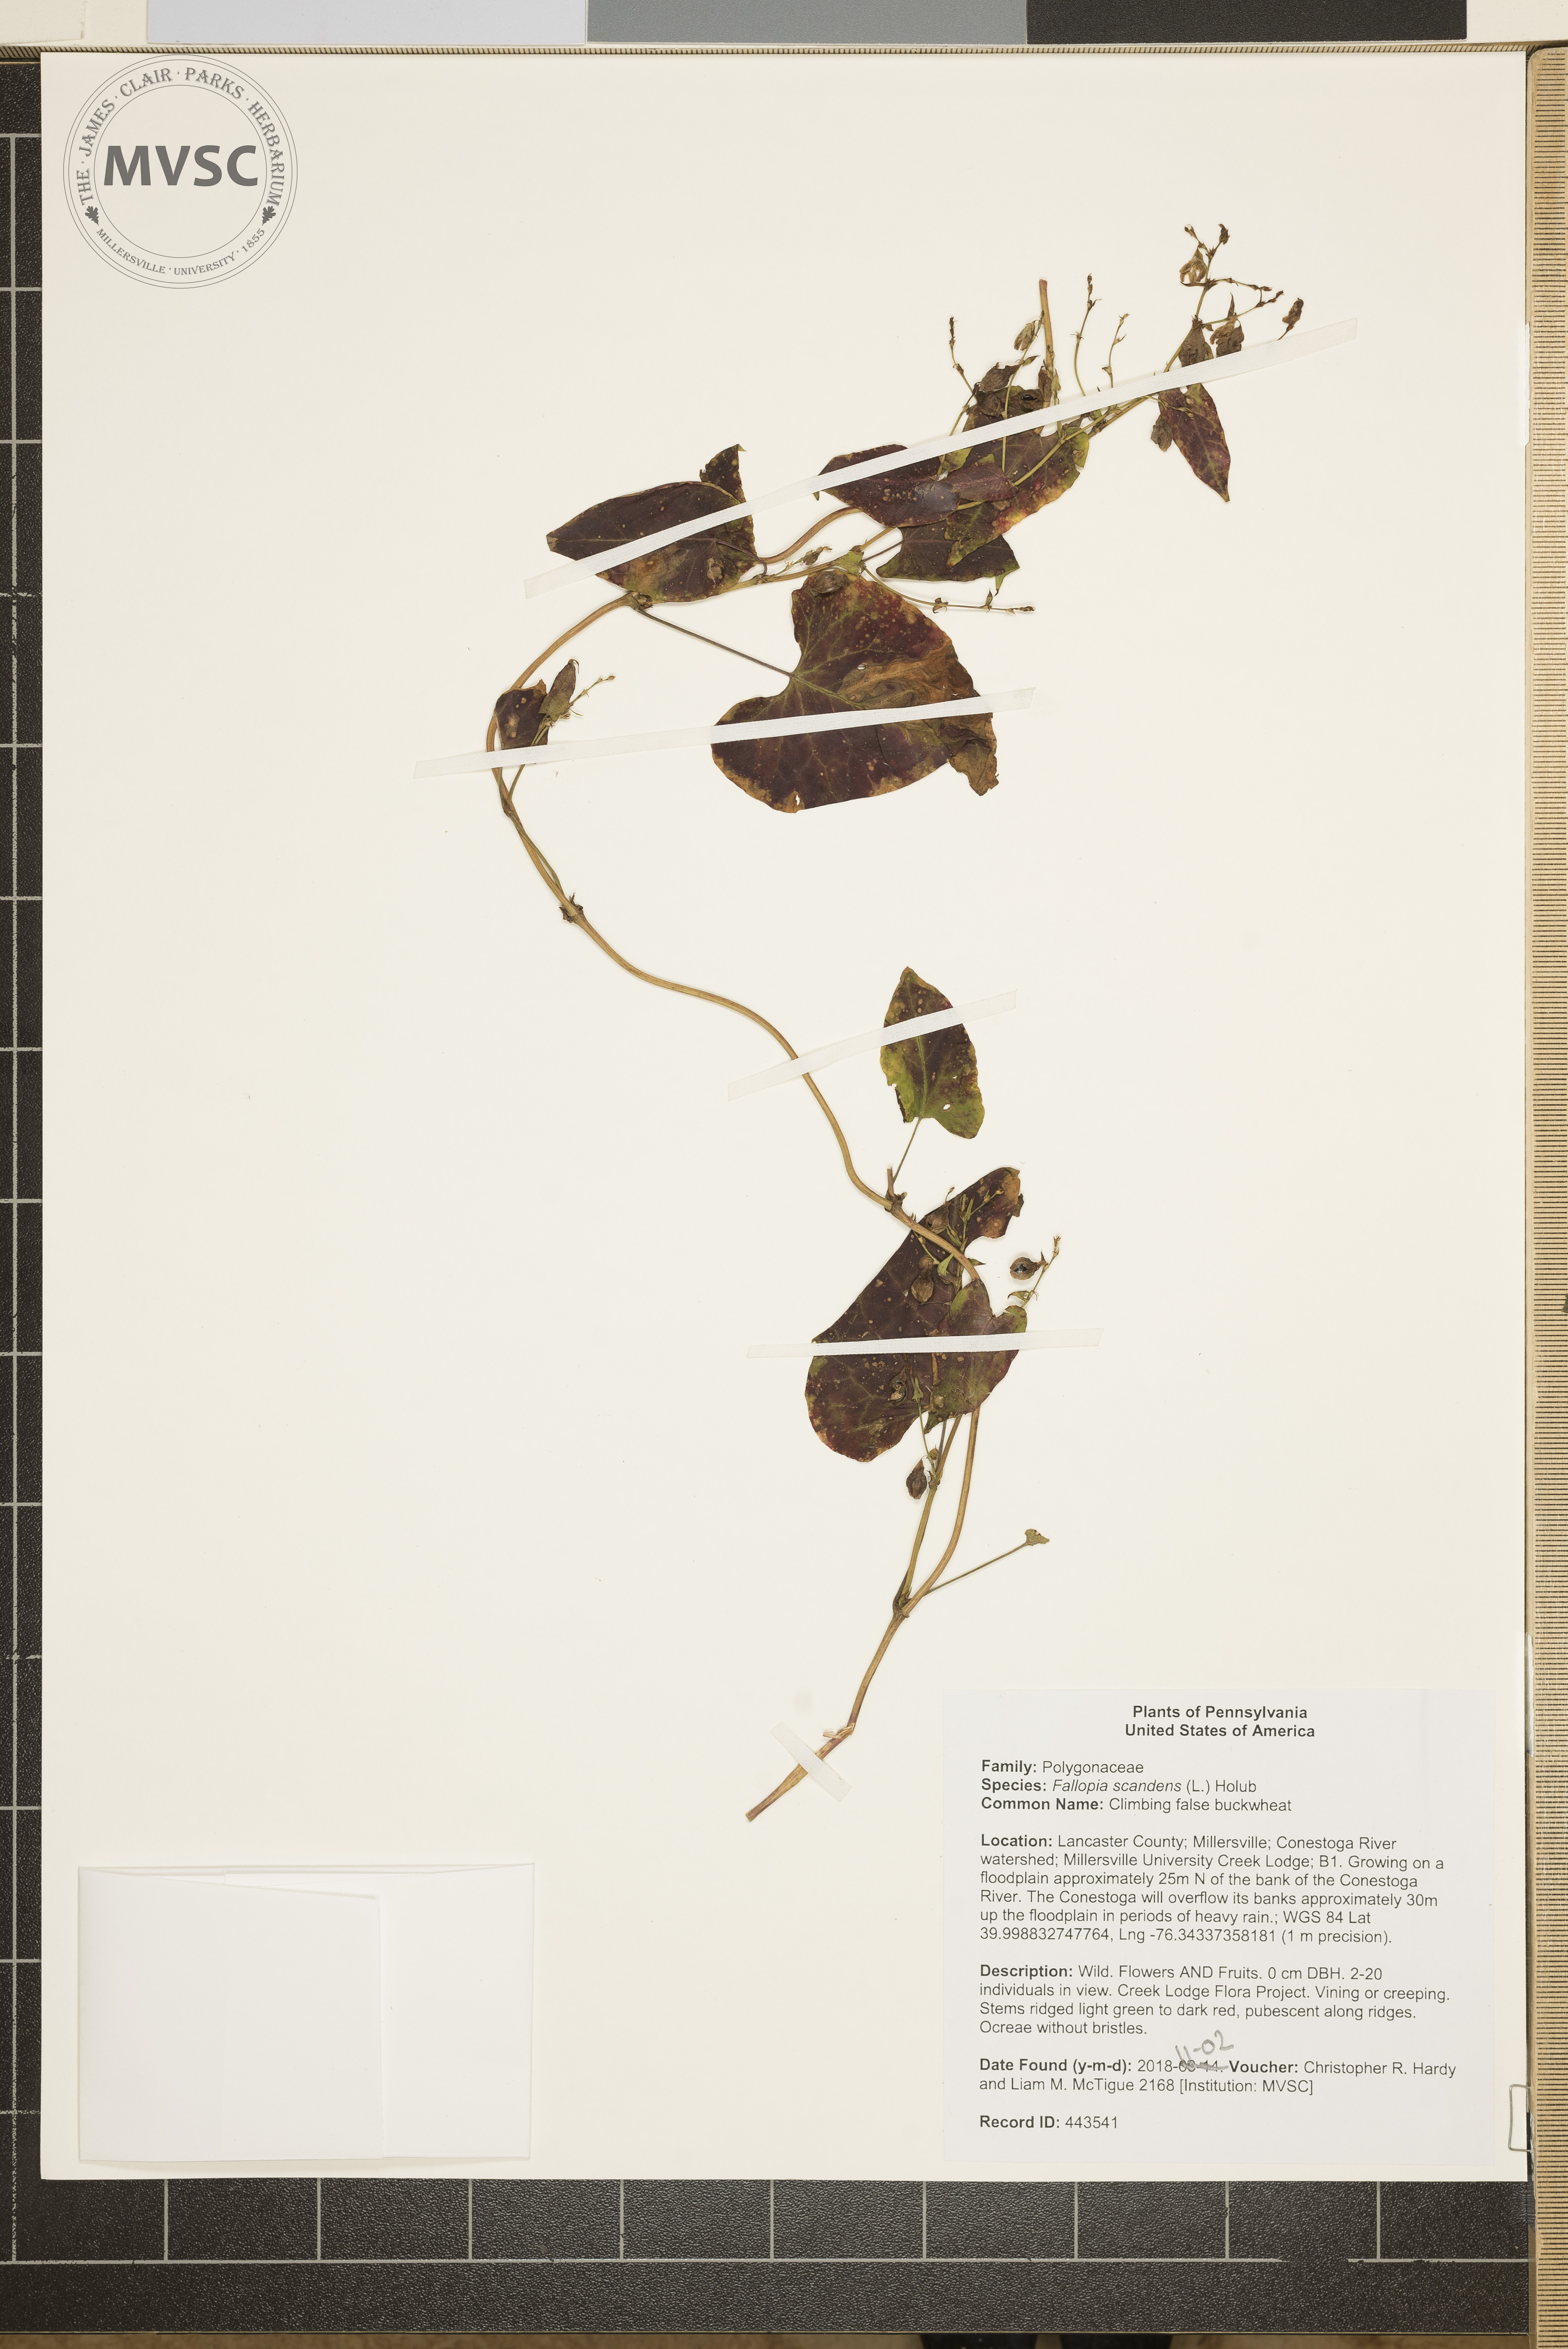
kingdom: Plantae
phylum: Tracheophyta
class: Magnoliopsida
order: Caryophyllales
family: Polygonaceae
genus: Fallopia
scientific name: Fallopia scandens
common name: Climbing false buckwheat
